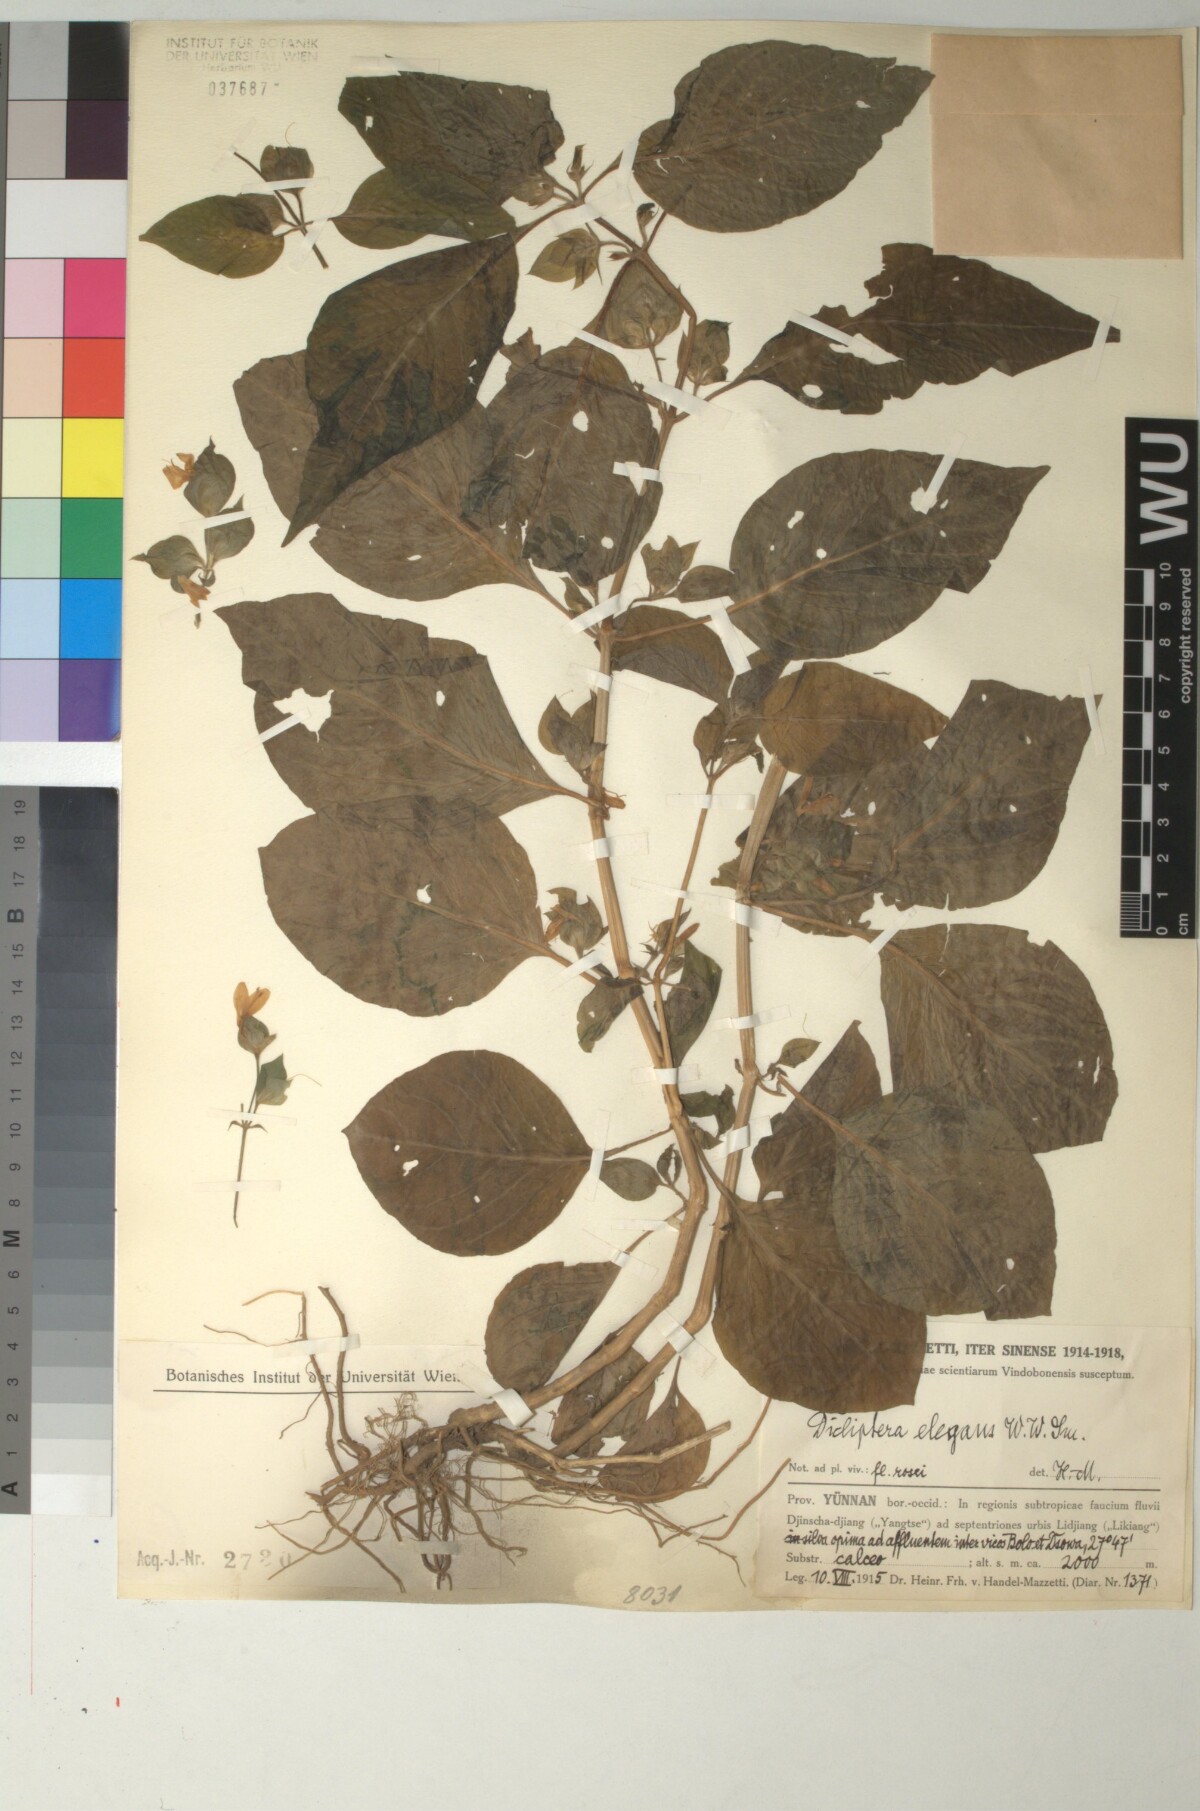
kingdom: Plantae
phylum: Tracheophyta
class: Magnoliopsida
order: Lamiales
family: Acanthaceae
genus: Dicliptera
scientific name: Dicliptera elegans
